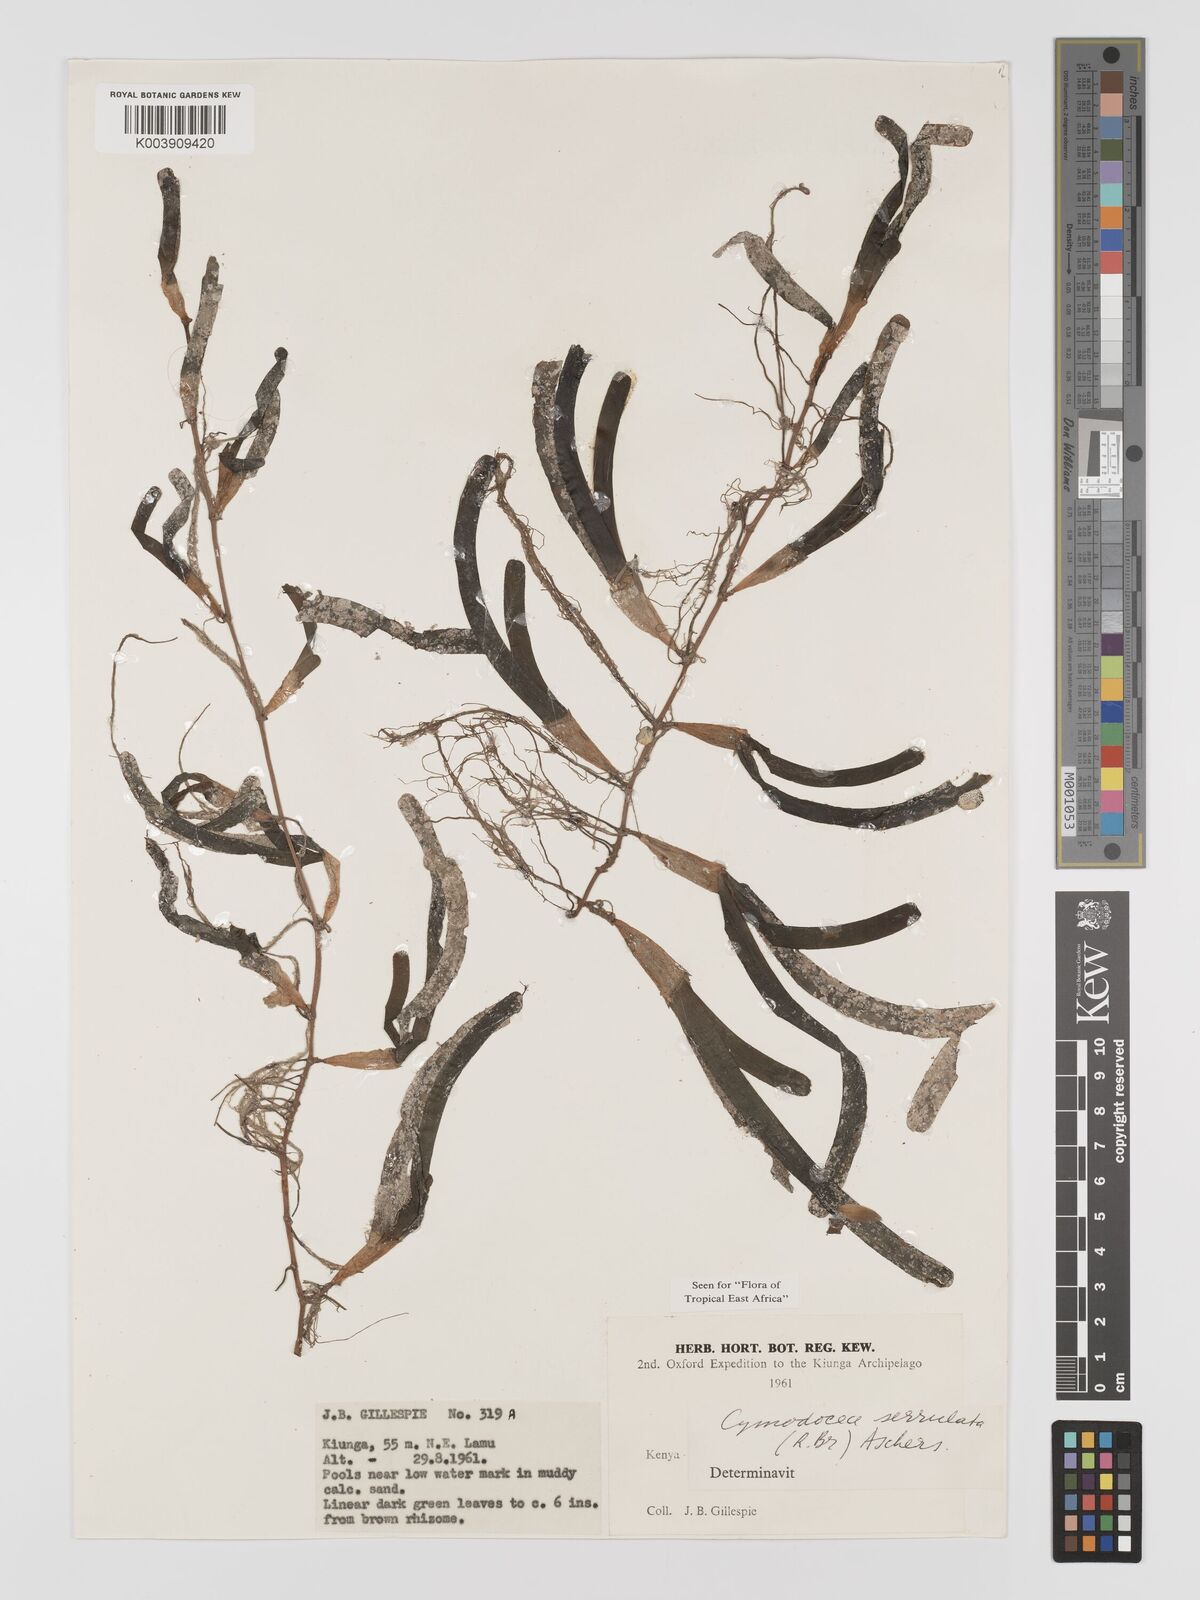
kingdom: Plantae
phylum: Tracheophyta
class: Liliopsida
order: Alismatales
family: Cymodoceaceae
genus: Oceana
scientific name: Oceana serrulata
